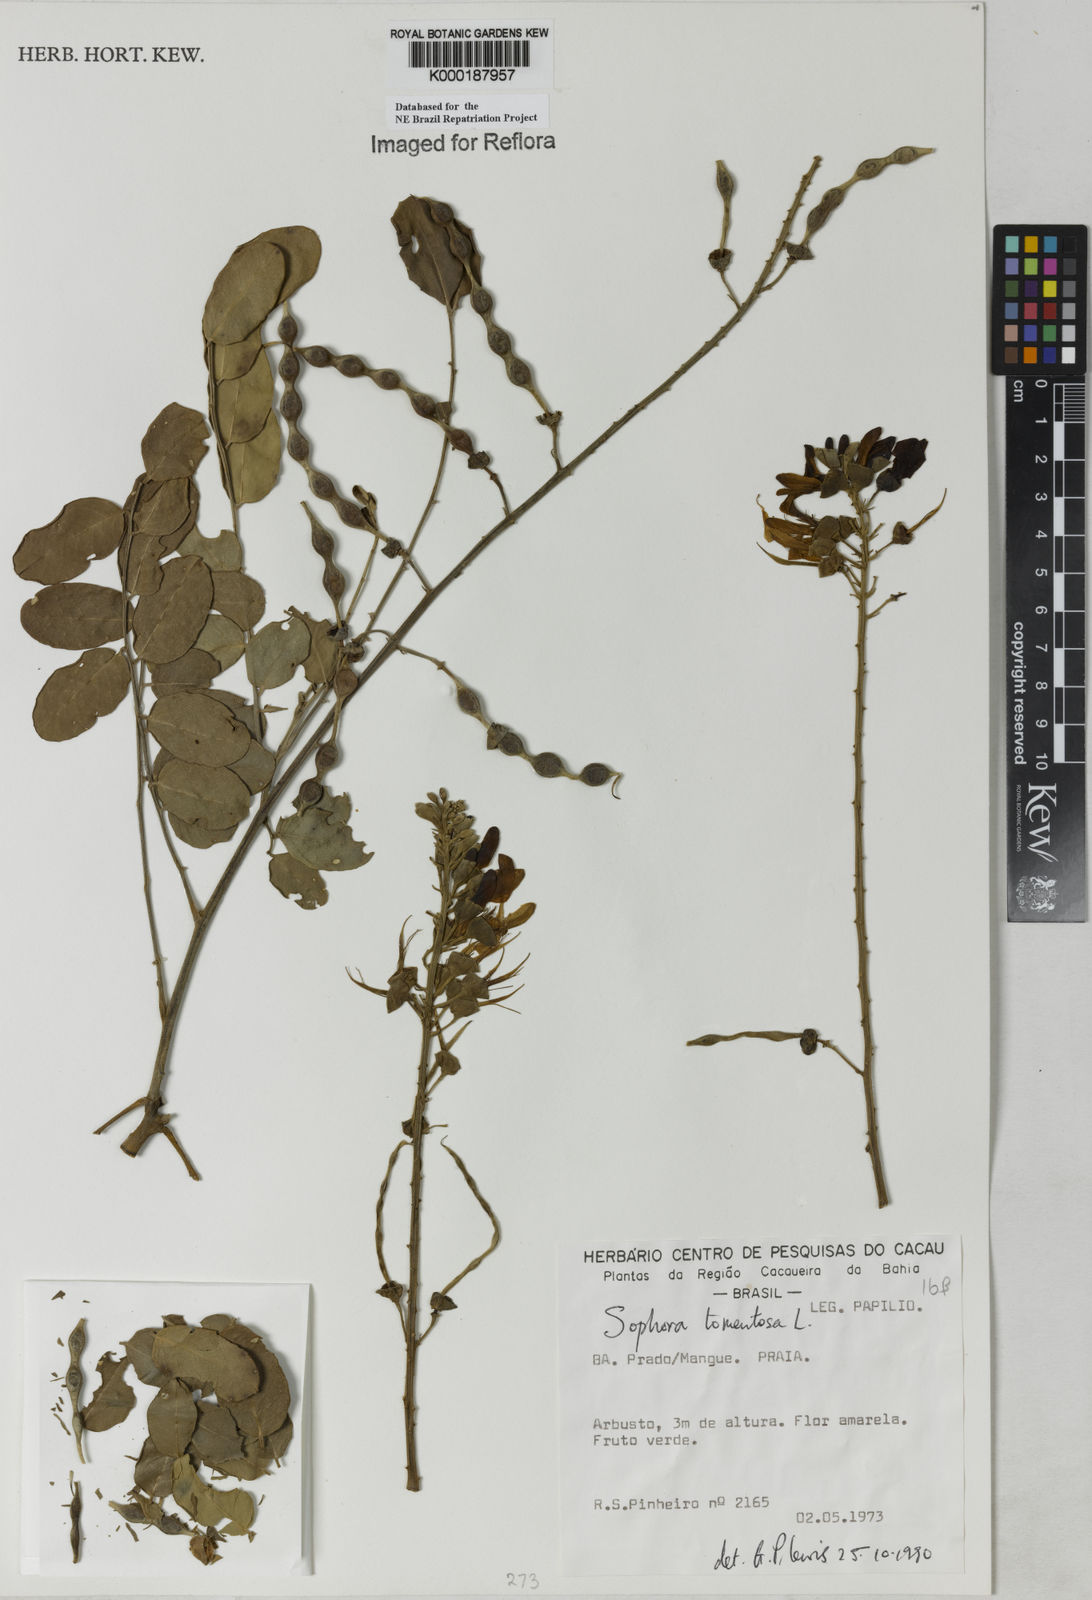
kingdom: Plantae
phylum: Tracheophyta
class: Magnoliopsida
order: Fabales
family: Fabaceae
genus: Sophora
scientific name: Sophora tomentosa
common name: Yellow necklacepod
